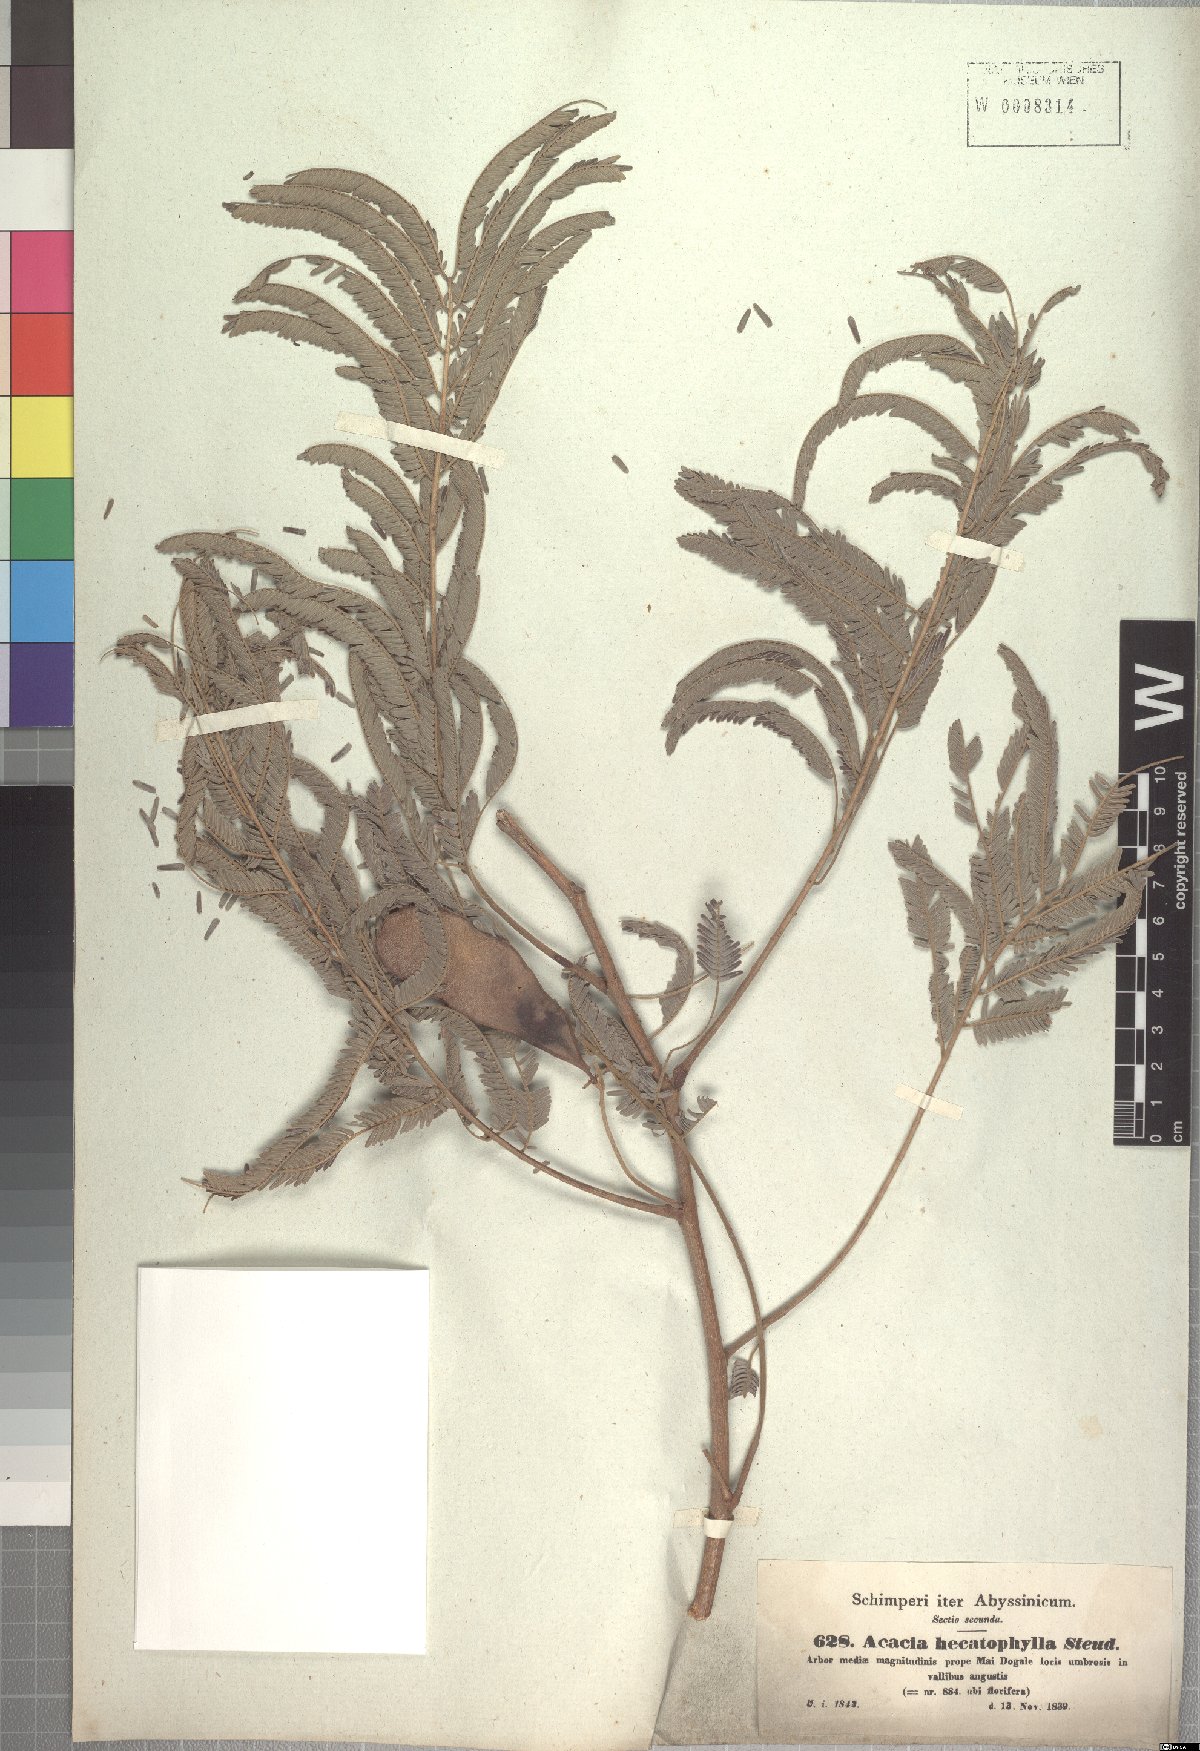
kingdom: Plantae
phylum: Tracheophyta
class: Magnoliopsida
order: Fabales
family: Fabaceae
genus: Senegalia
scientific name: Senegalia hecatophylla
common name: Long pod
